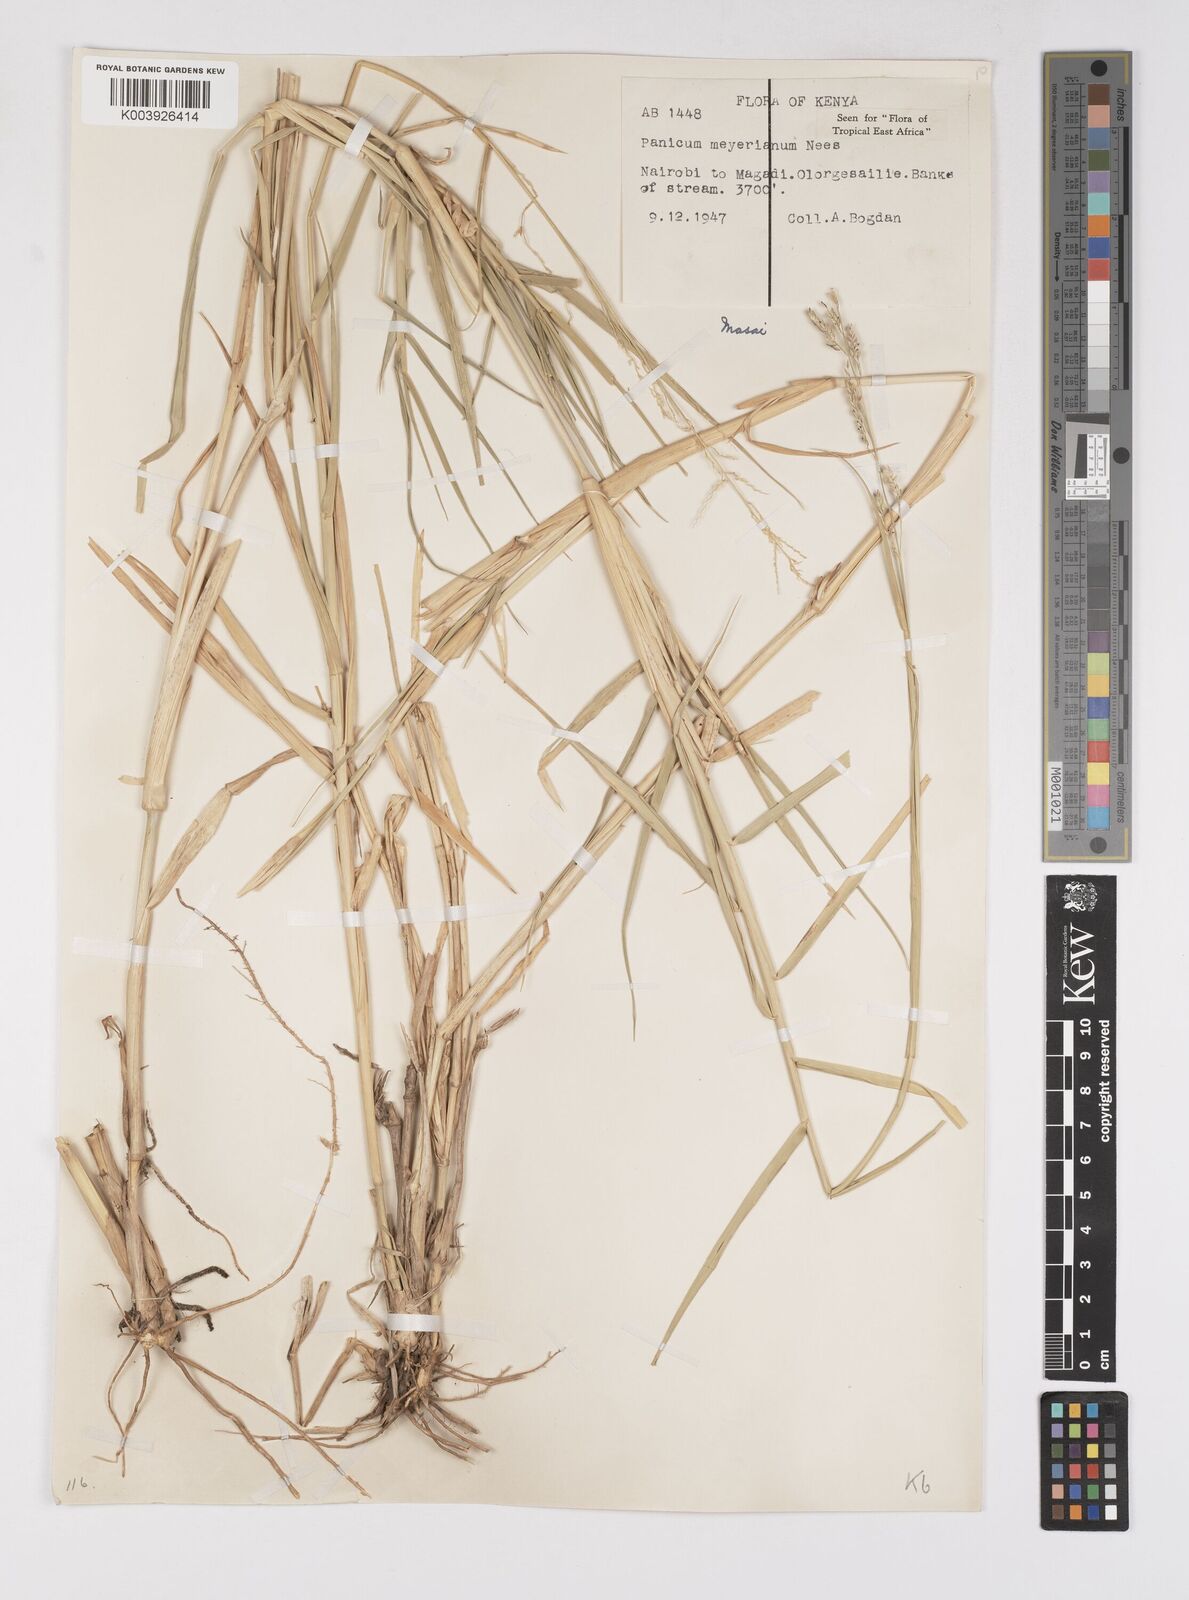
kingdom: Plantae
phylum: Tracheophyta
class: Liliopsida
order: Poales
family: Poaceae
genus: Eriochloa
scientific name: Eriochloa meyeriana
